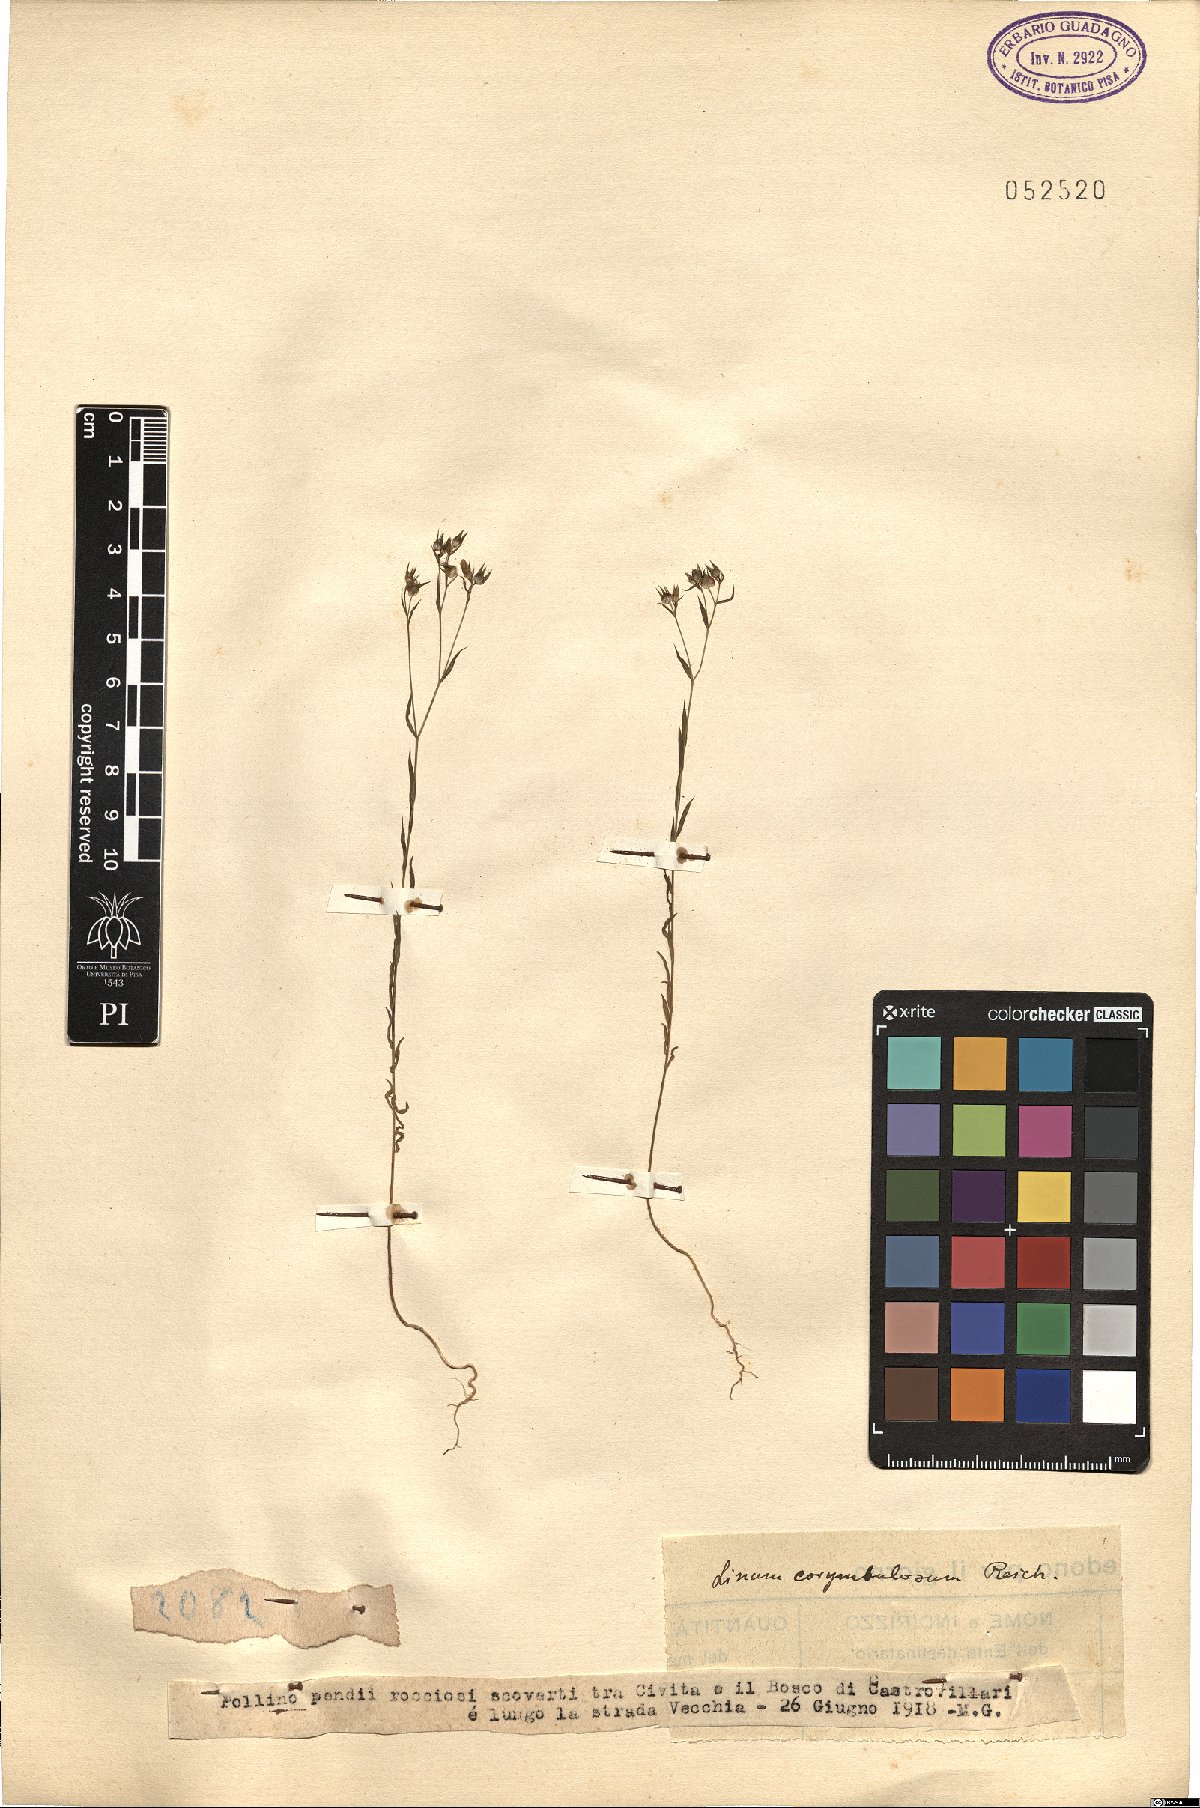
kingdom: Plantae
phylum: Tracheophyta
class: Magnoliopsida
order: Malpighiales
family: Linaceae
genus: Linum
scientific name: Linum corymbulosum
